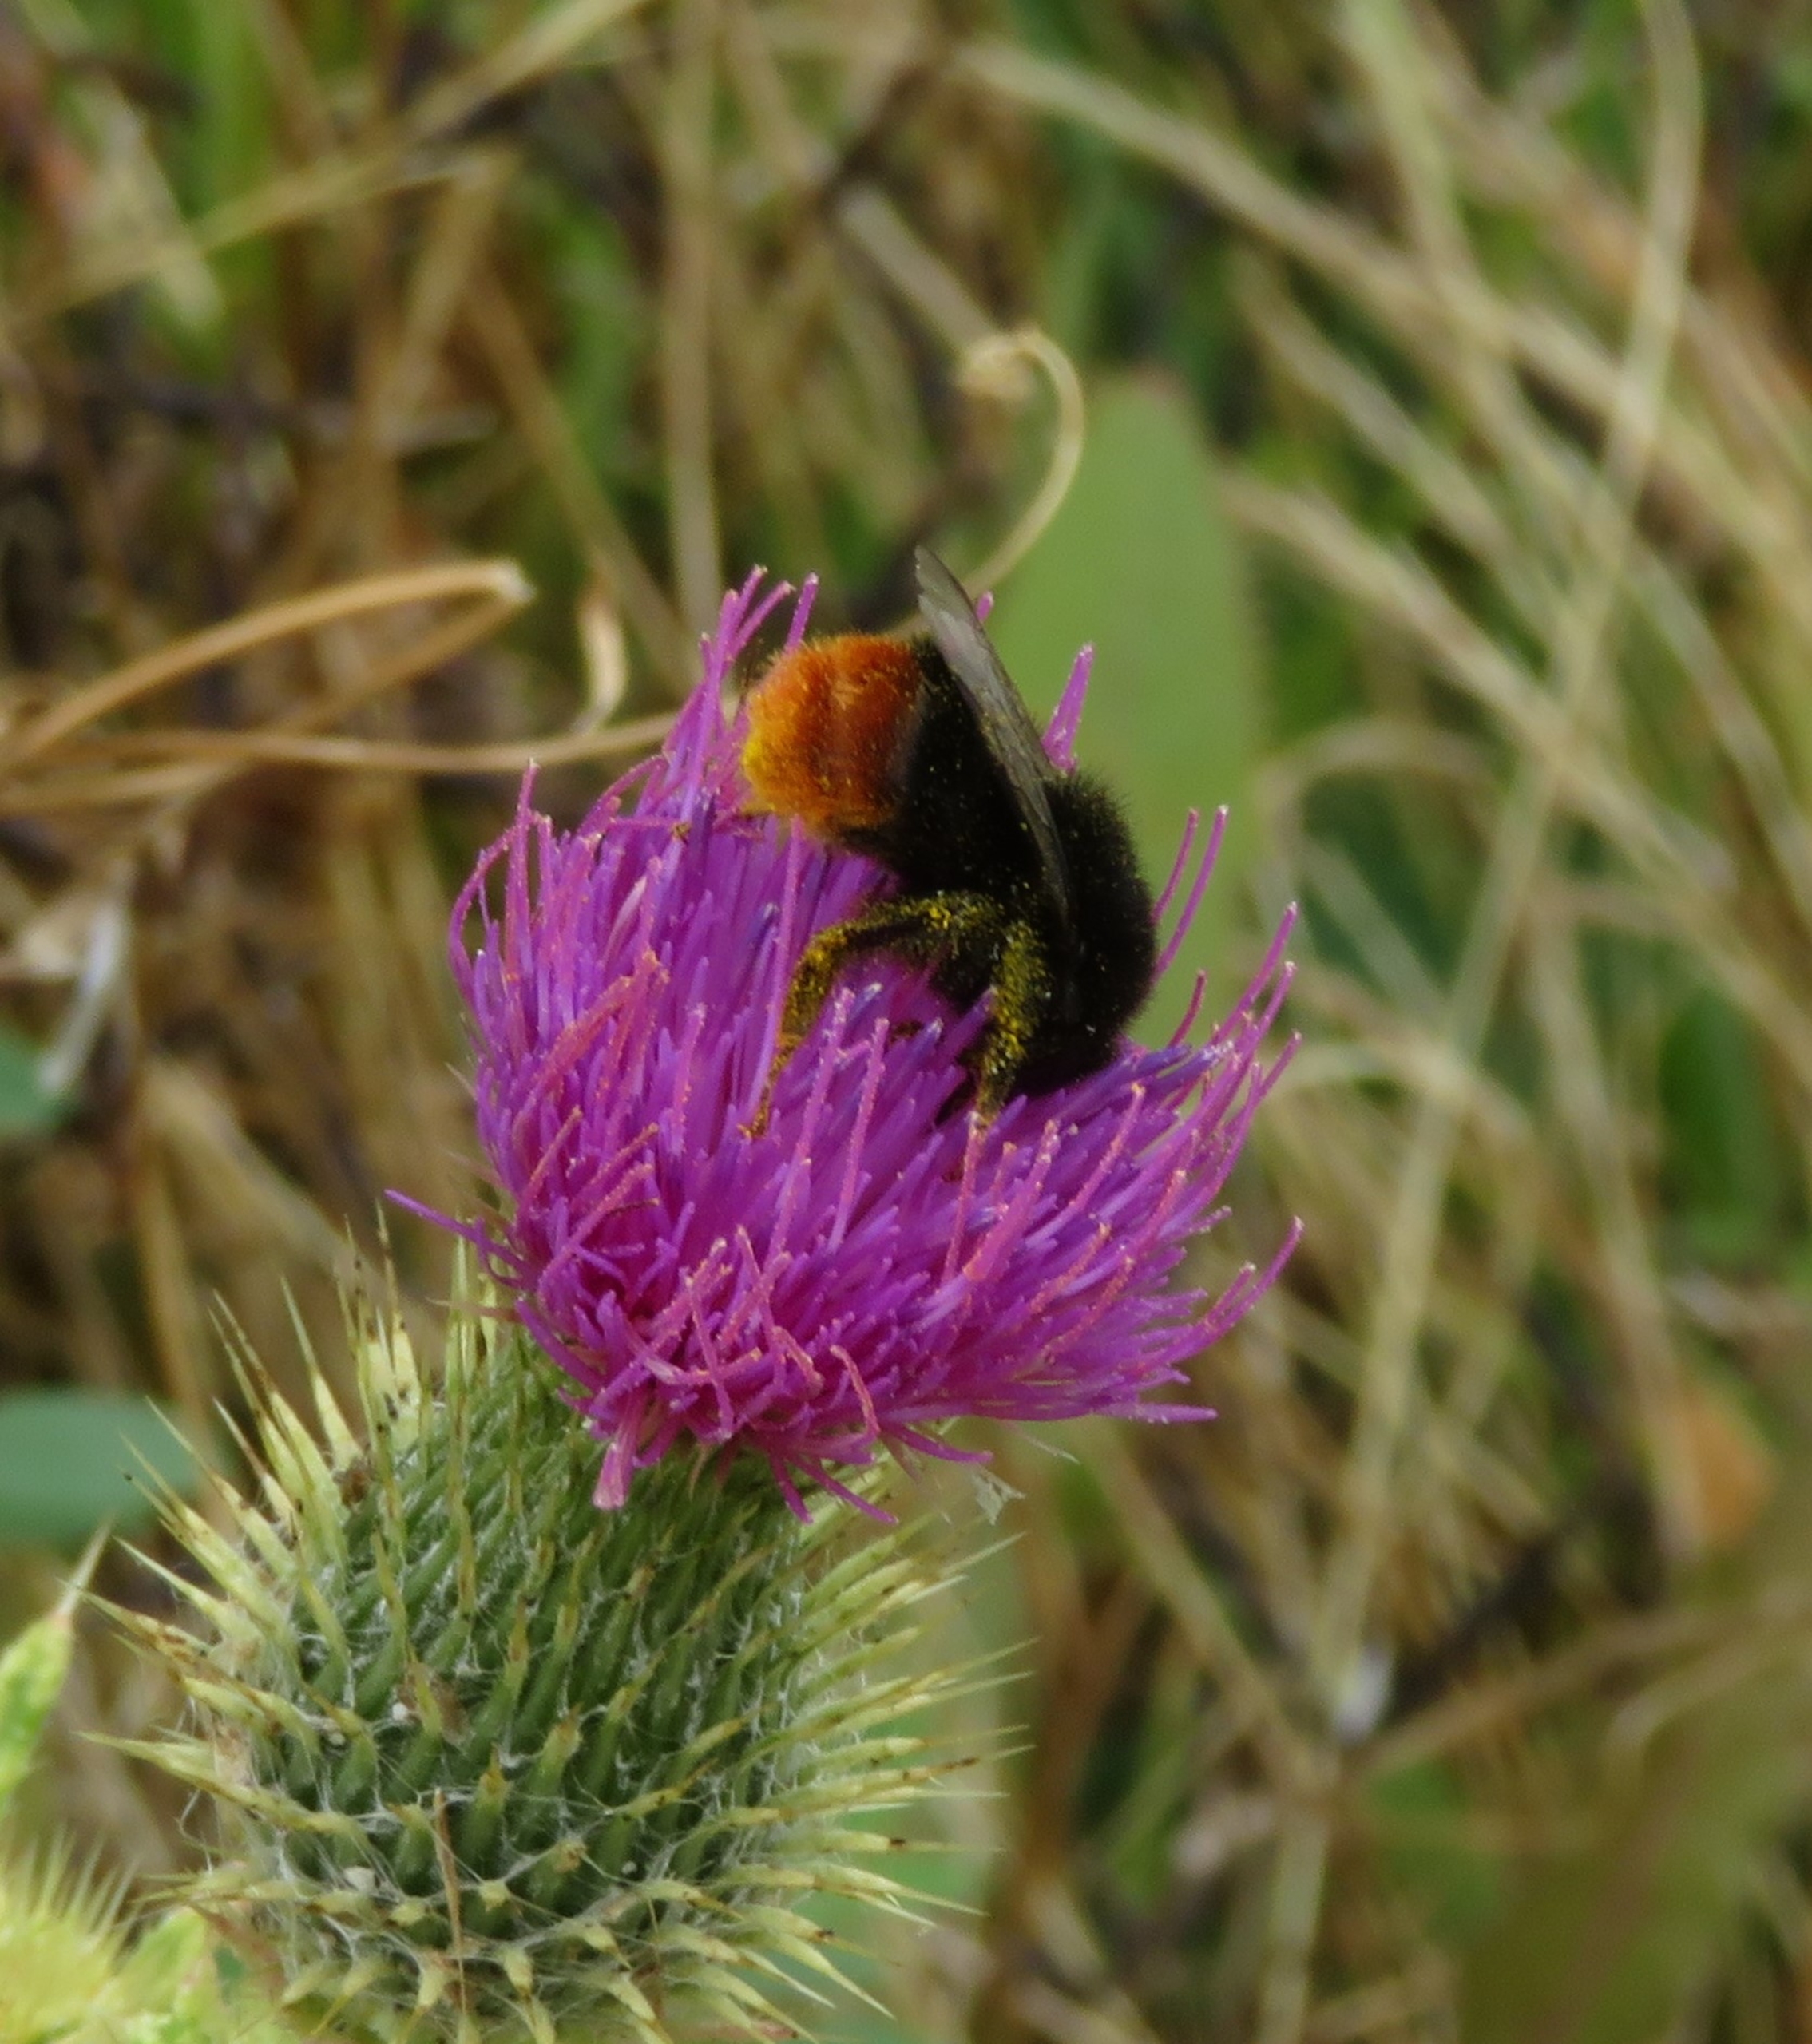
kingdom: Animalia
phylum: Arthropoda
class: Insecta
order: Hymenoptera
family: Apidae
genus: Bombus
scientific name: Bombus lapidarius
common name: Stenhumle
